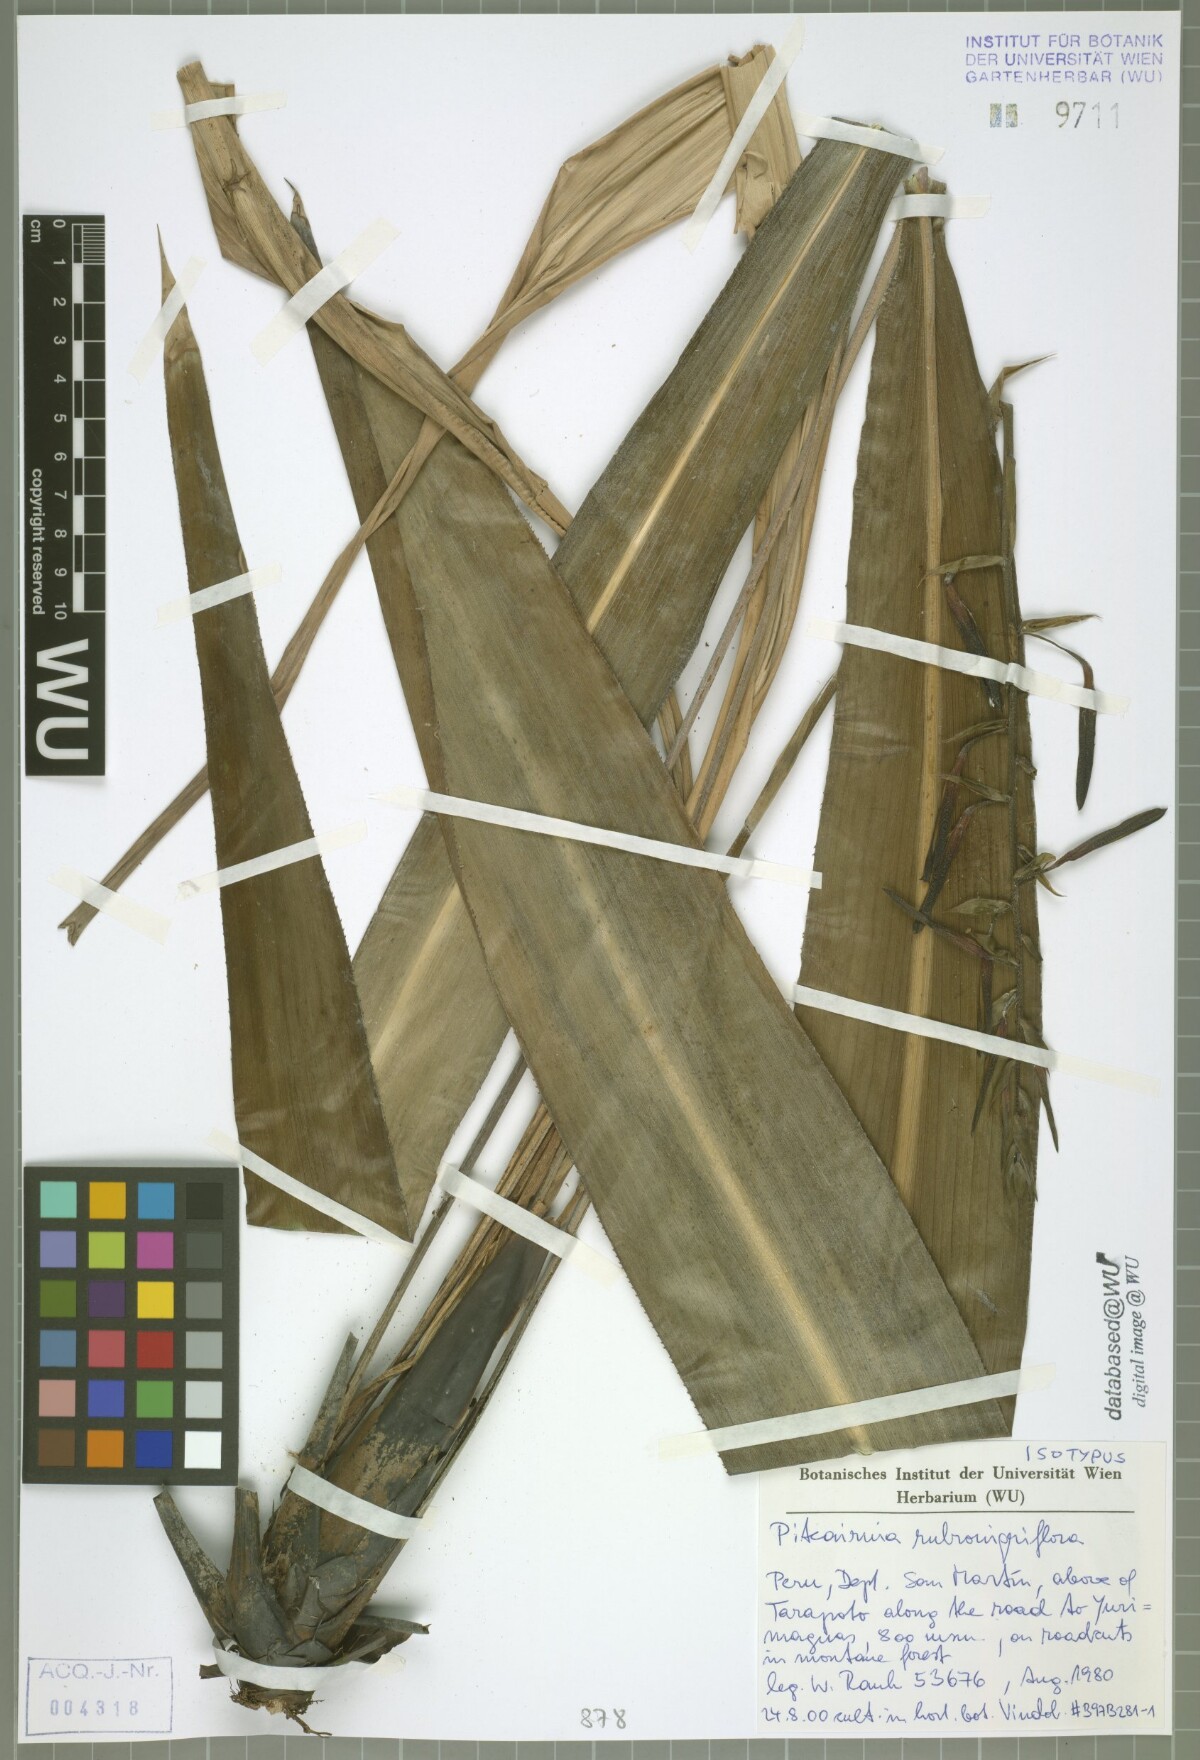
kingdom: Plantae
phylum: Tracheophyta
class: Liliopsida
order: Poales
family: Bromeliaceae
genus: Pitcairnia
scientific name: Pitcairnia rubronigriflora
